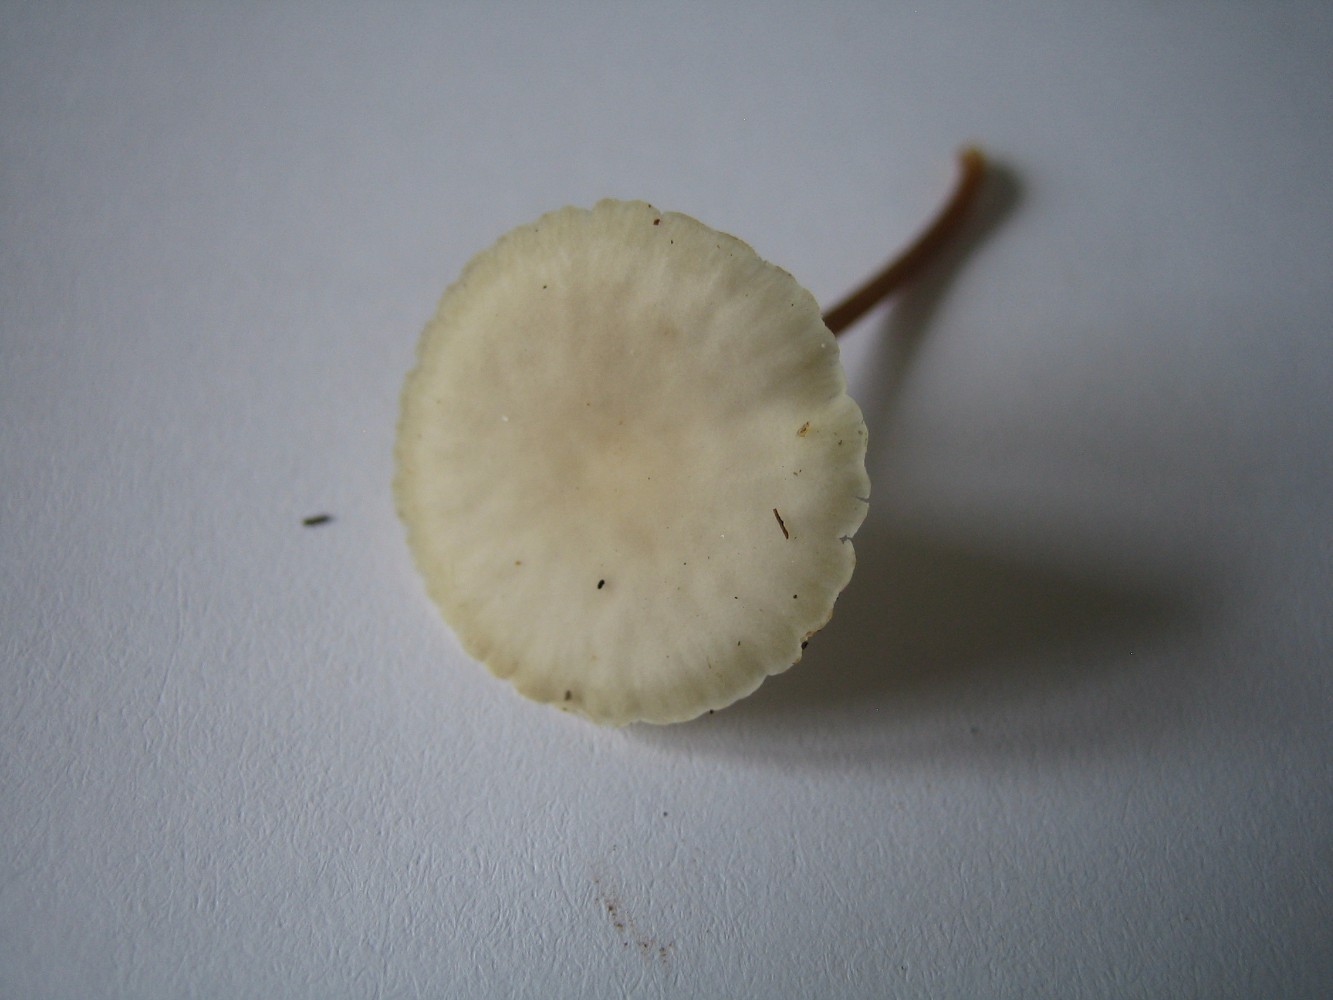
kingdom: Fungi
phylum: Basidiomycota
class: Agaricomycetes
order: Agaricales
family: Physalacriaceae
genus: Strobilurus
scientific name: Strobilurus
